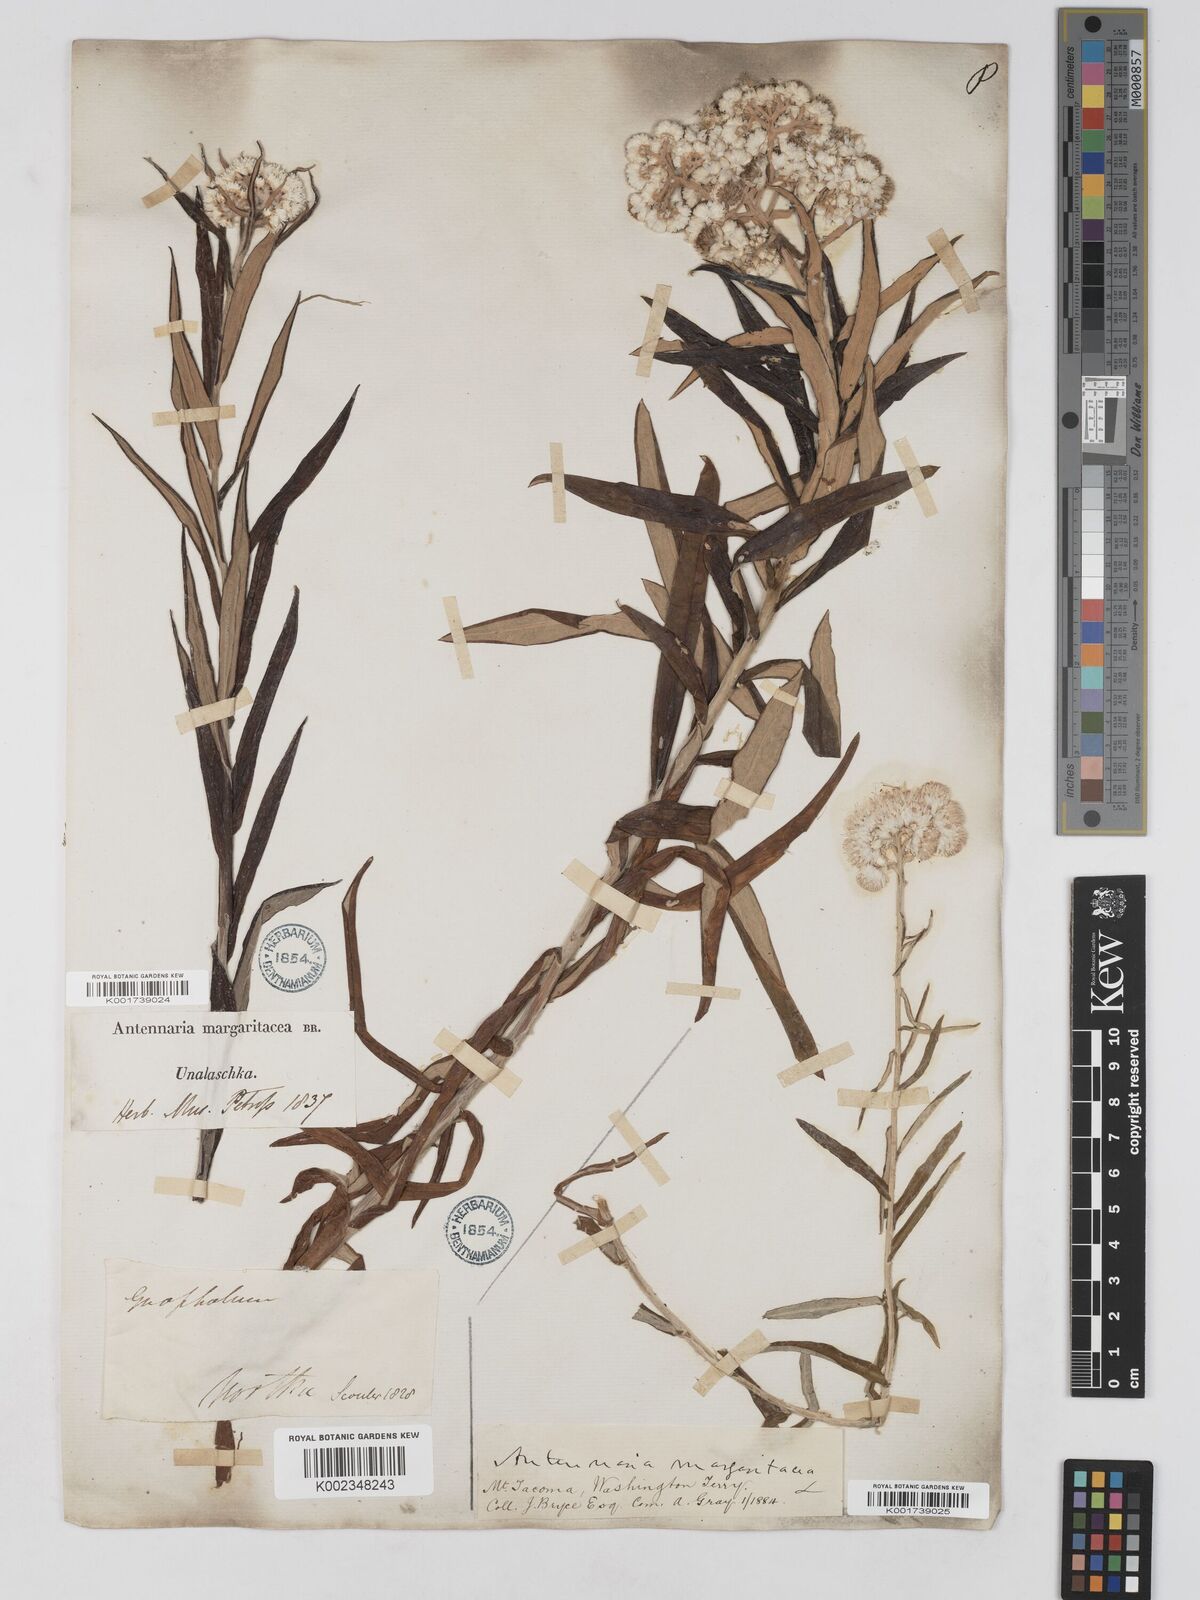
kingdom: Plantae
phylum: Tracheophyta
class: Magnoliopsida
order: Asterales
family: Asteraceae
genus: Anaphalis
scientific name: Anaphalis margaritacea
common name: Pearly everlasting
